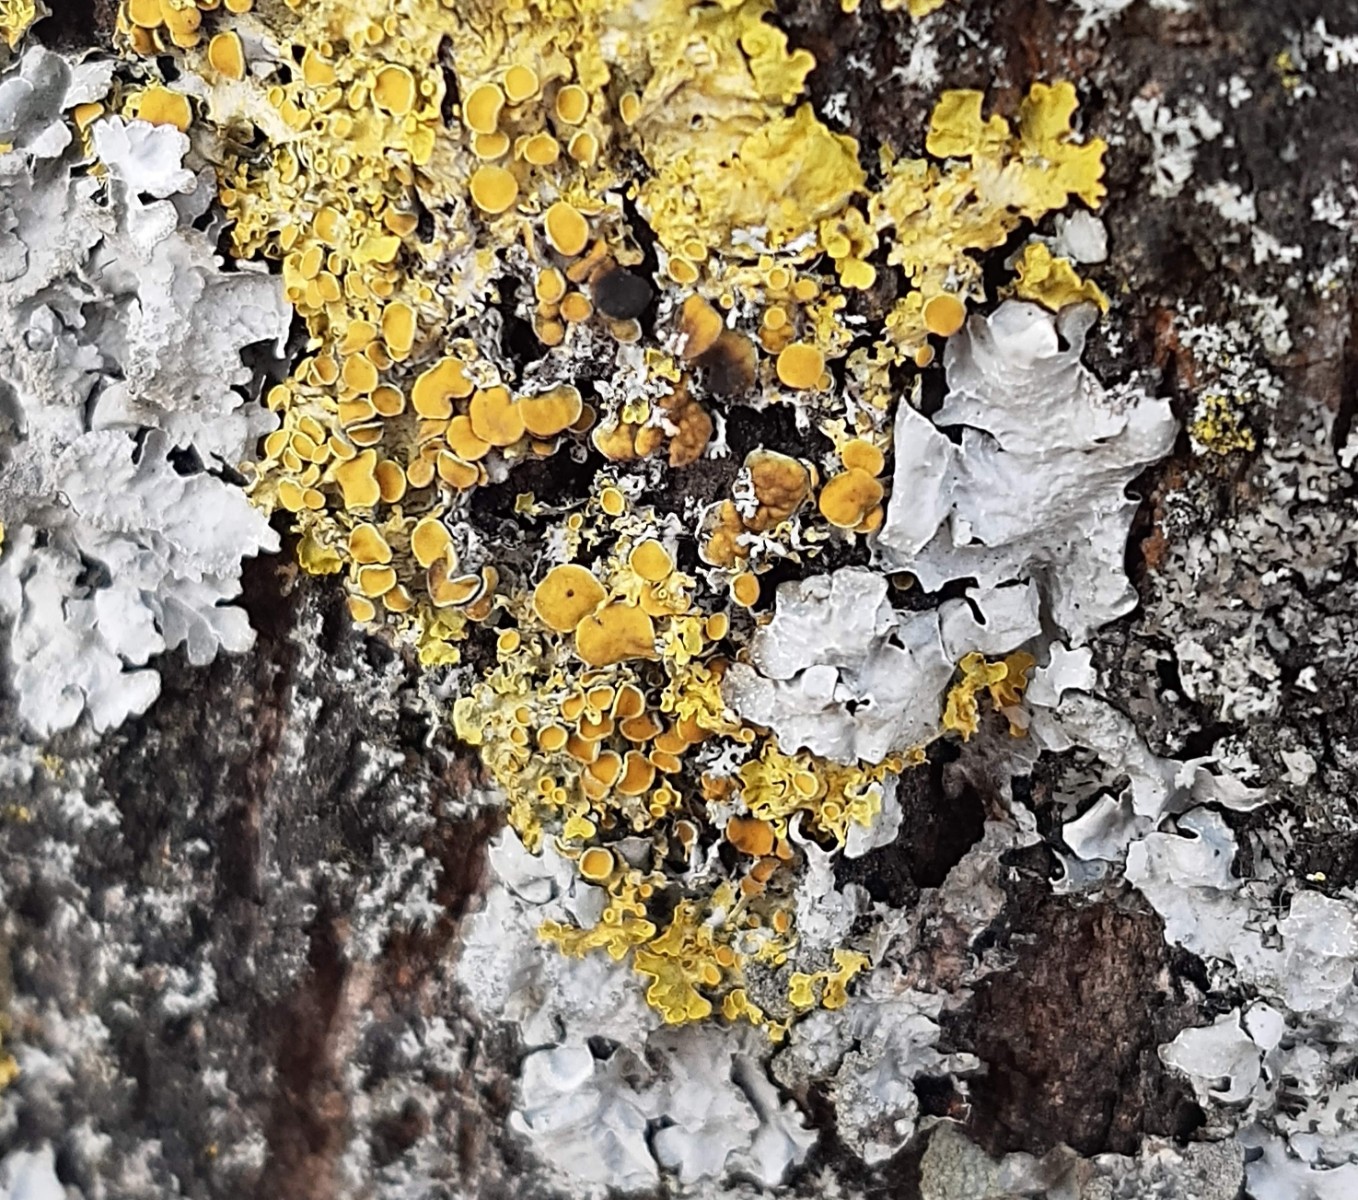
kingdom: Fungi
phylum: Ascomycota
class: Dothideomycetes
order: Mycosphaerellales
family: Teratosphaeriaceae
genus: Xanthoriicola
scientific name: Xanthoriicola physciae
